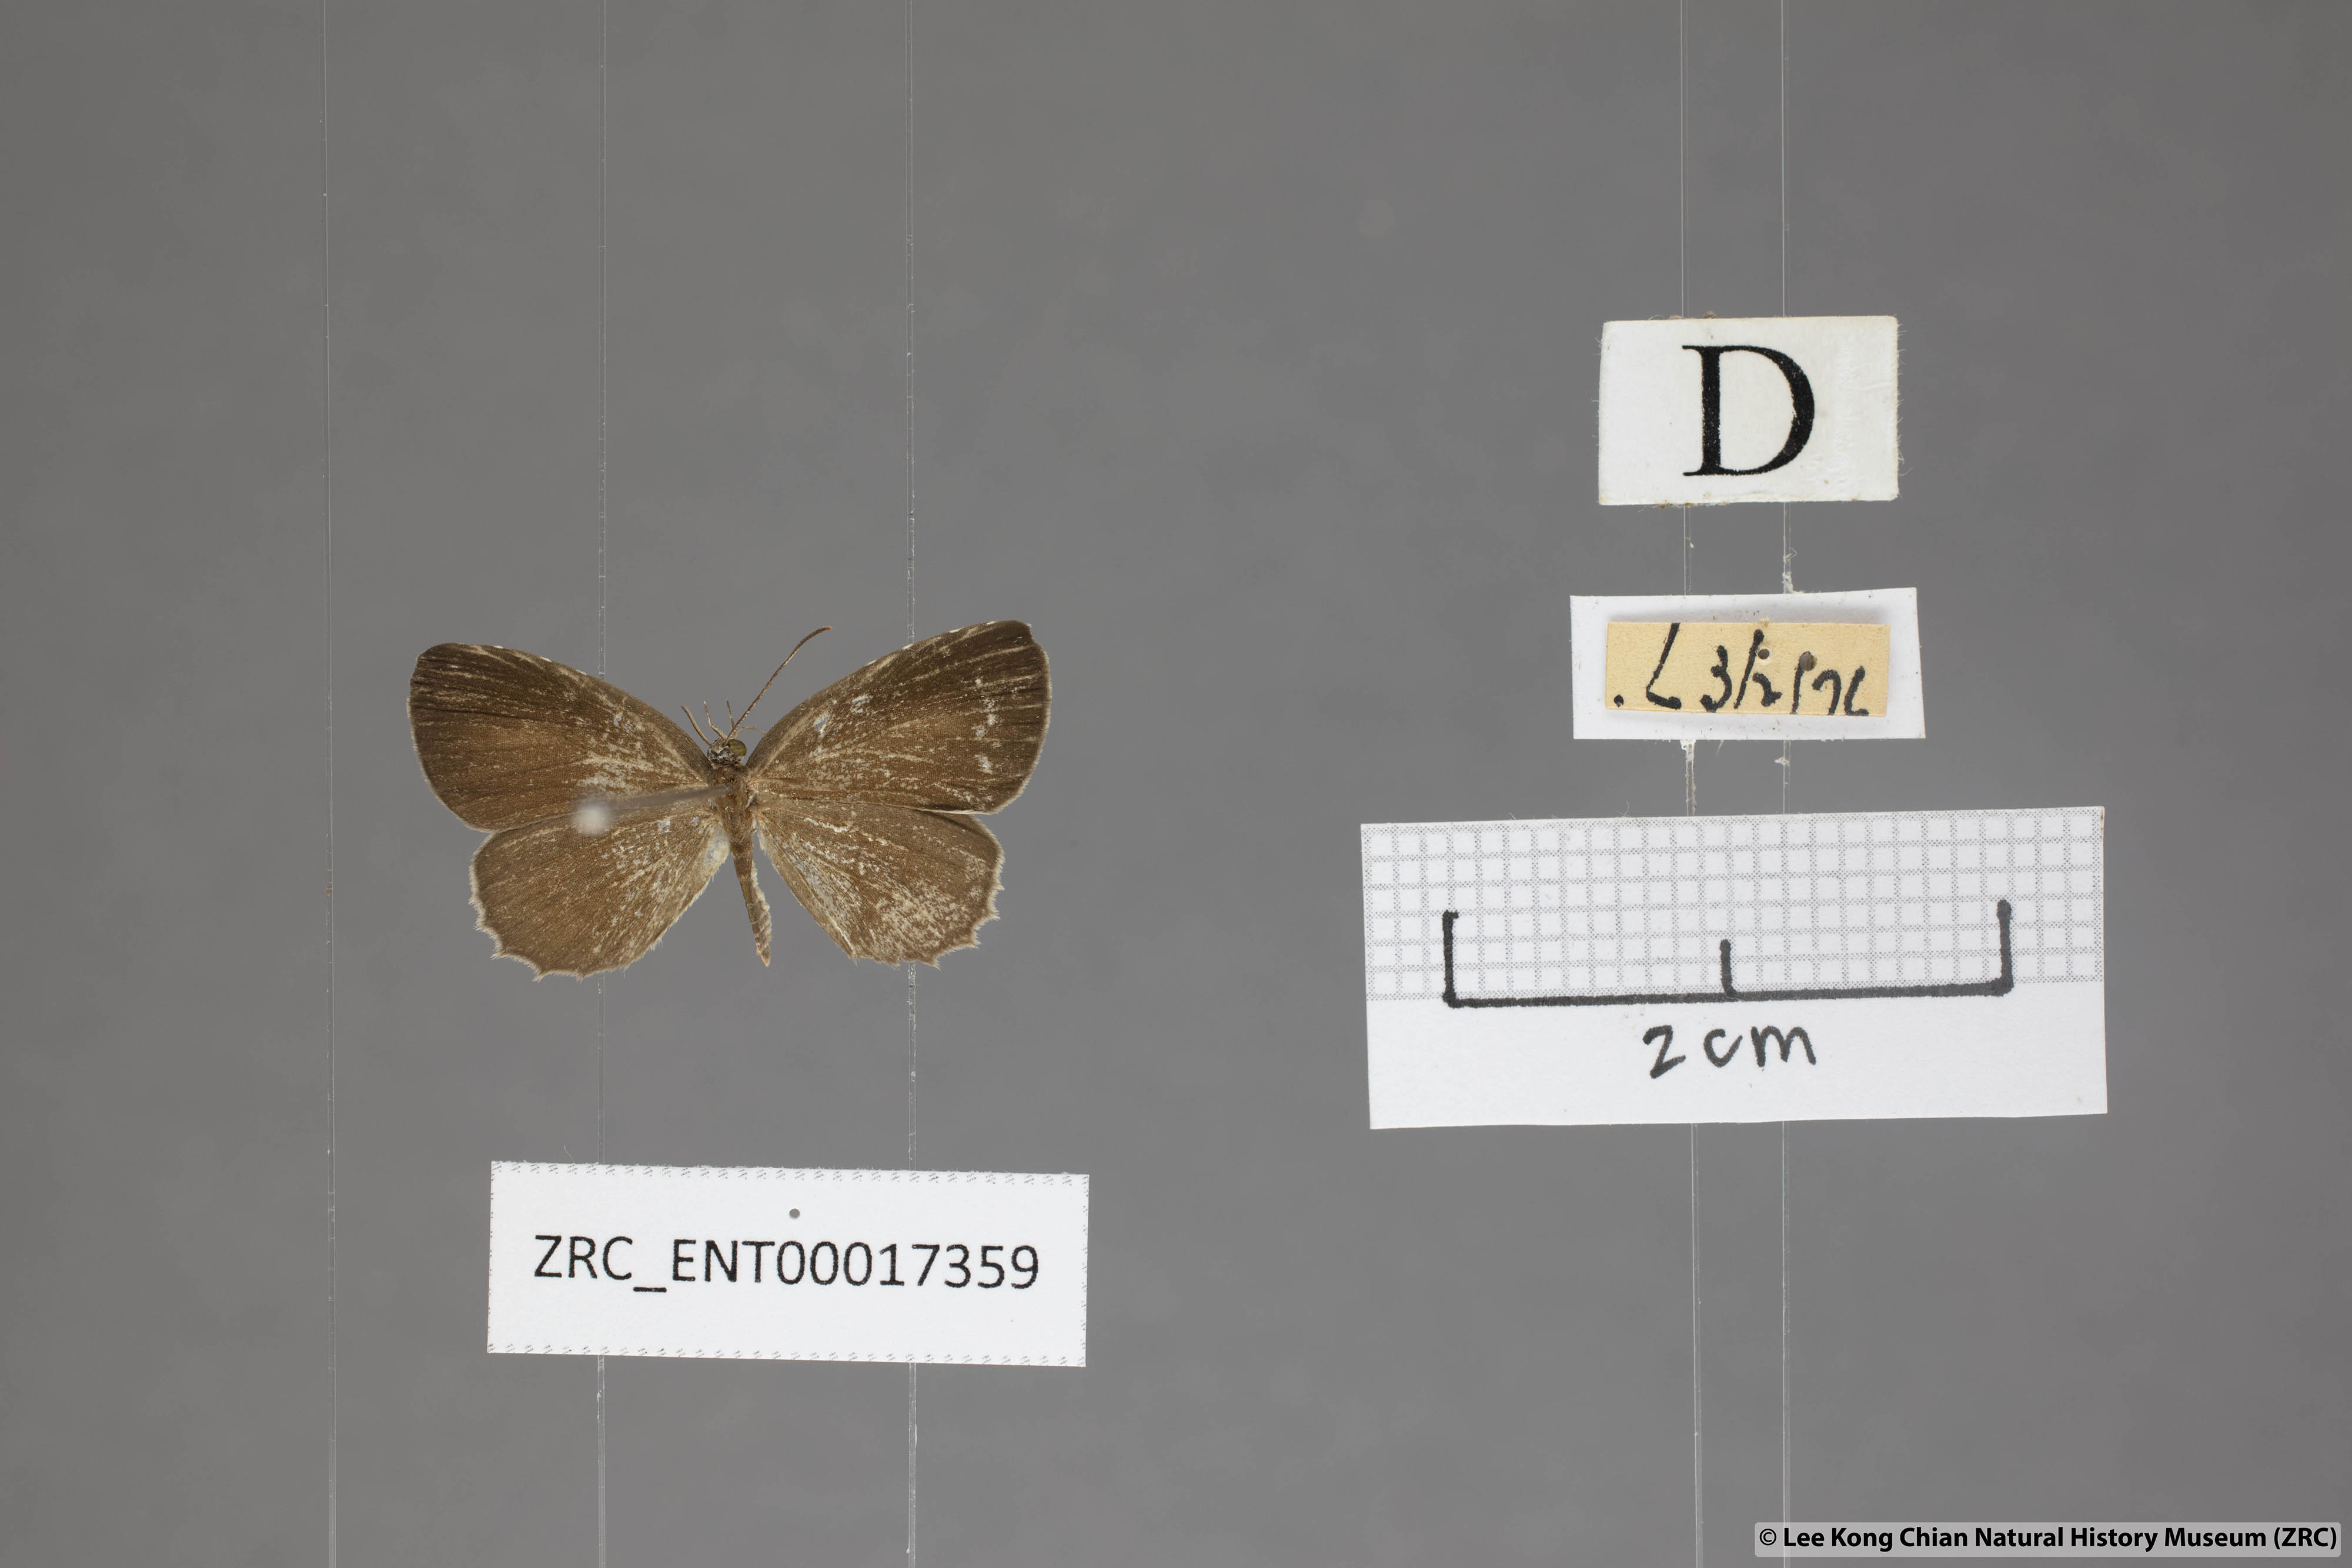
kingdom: Animalia
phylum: Arthropoda
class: Insecta
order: Lepidoptera
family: Lycaenidae
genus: Allotinus
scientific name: Allotinus unicolor
